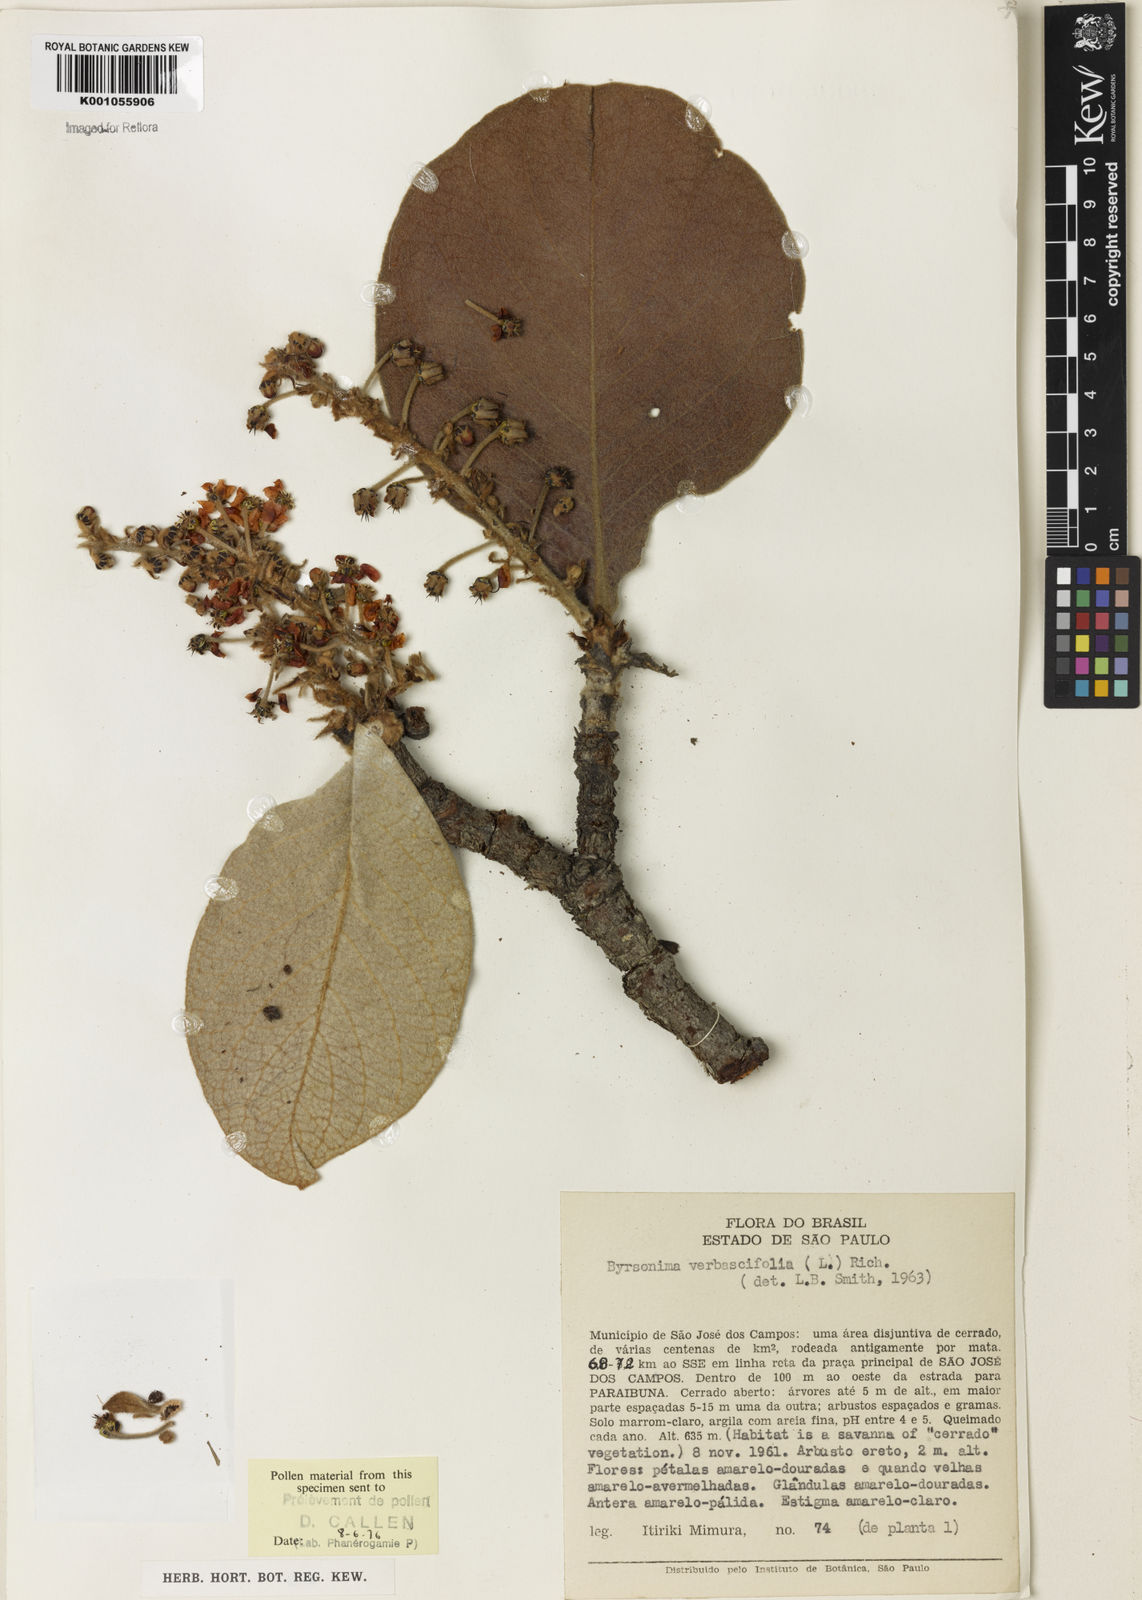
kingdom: Plantae
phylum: Tracheophyta
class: Magnoliopsida
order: Malpighiales
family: Malpighiaceae
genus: Byrsonima
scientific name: Byrsonima verbascifolia
